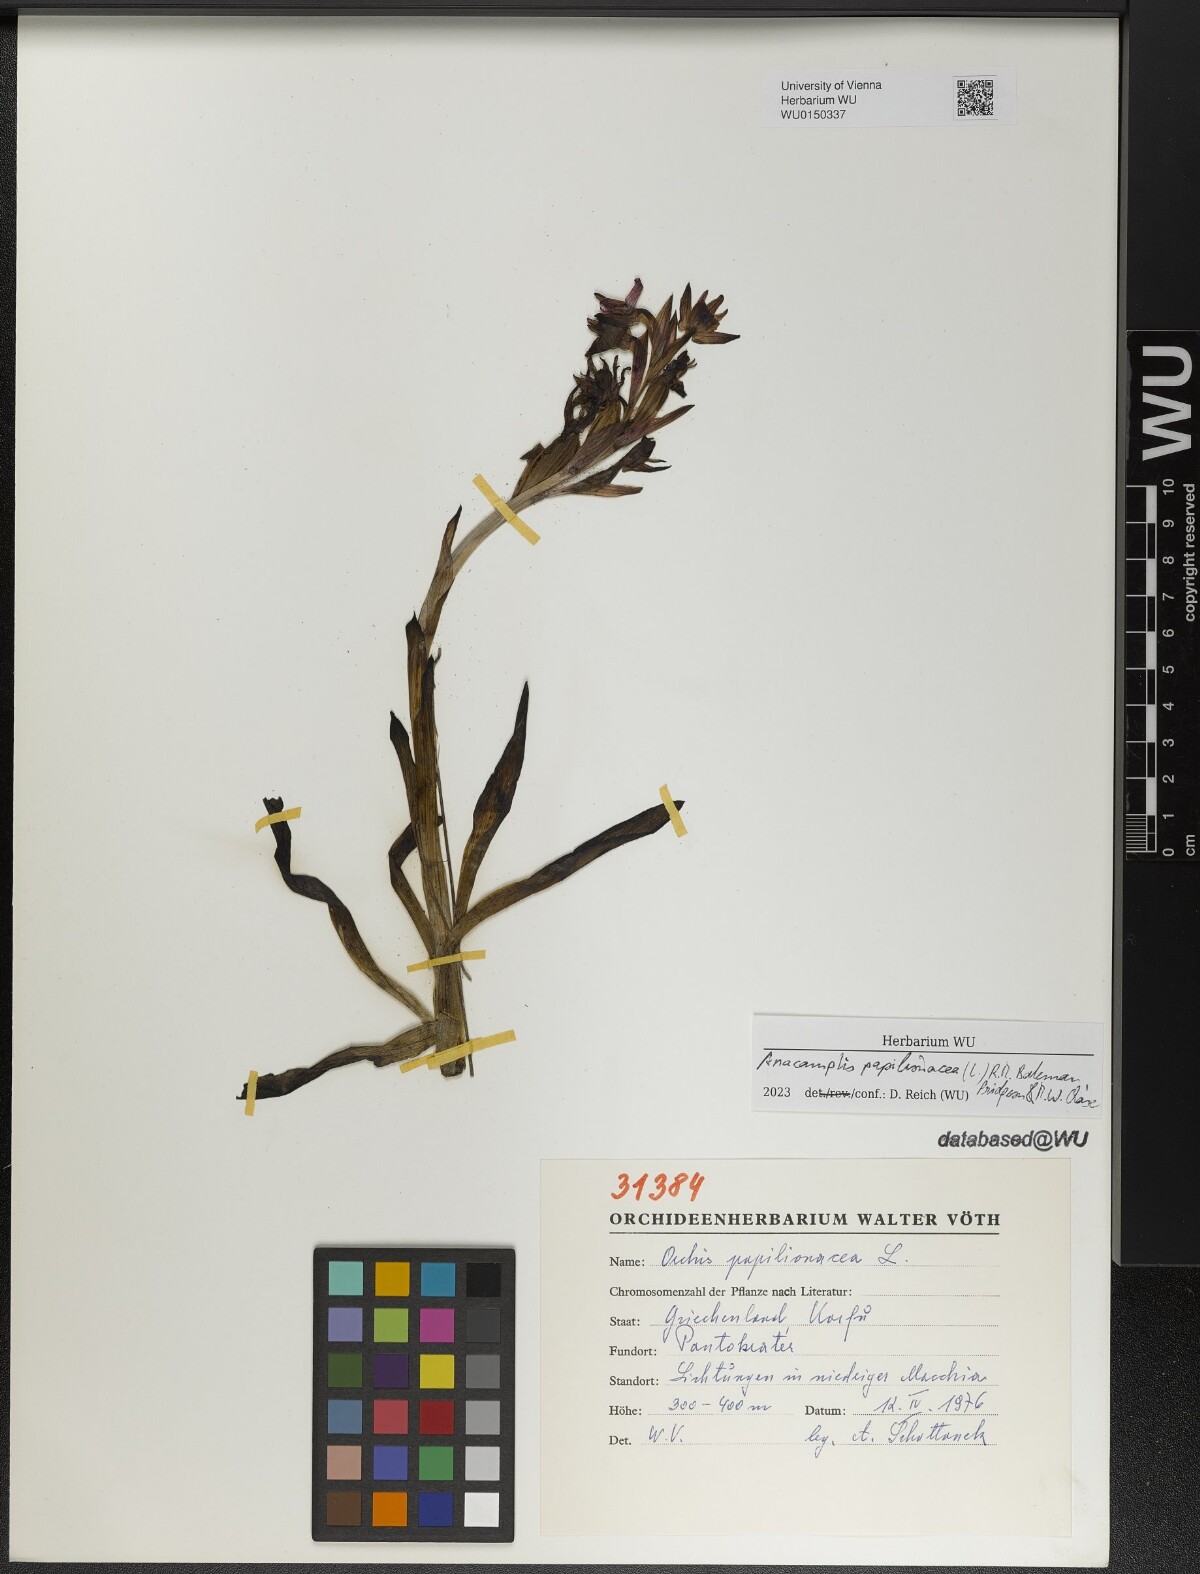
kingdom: Plantae
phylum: Tracheophyta
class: Liliopsida
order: Asparagales
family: Orchidaceae
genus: Anacamptis
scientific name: Anacamptis papilionacea
